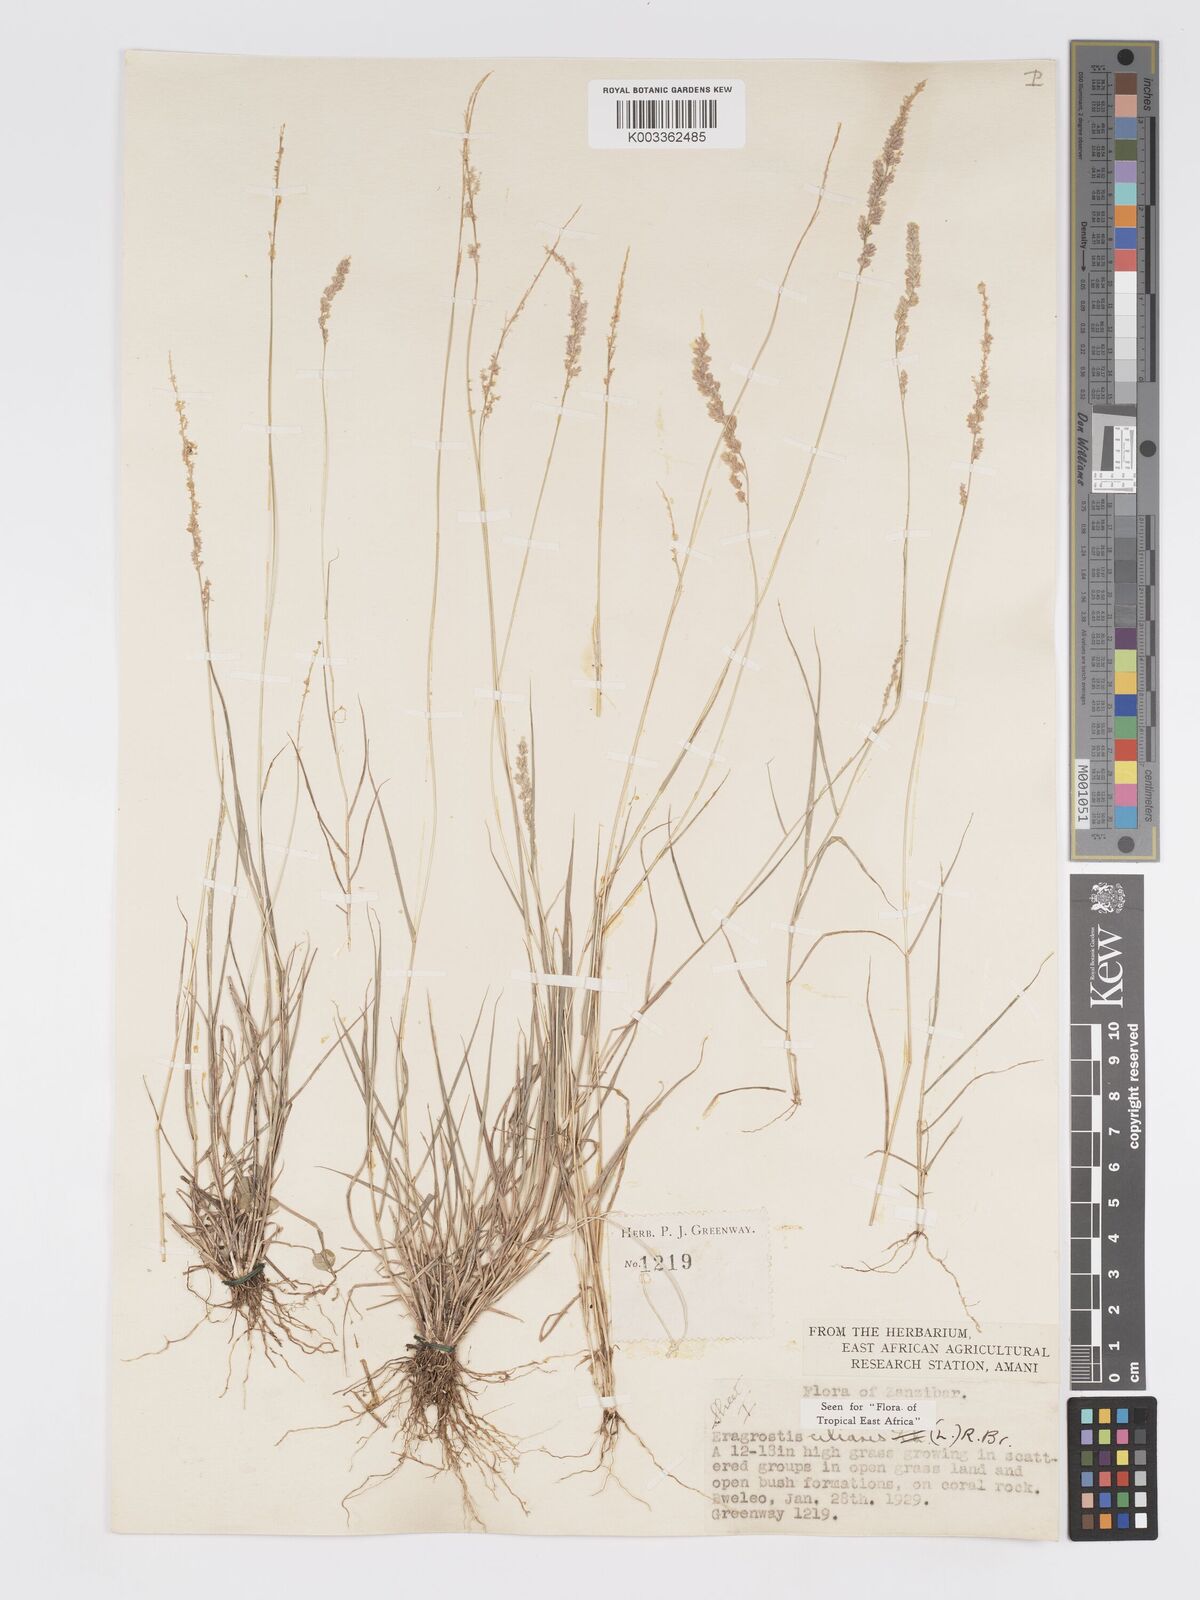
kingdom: Plantae
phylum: Tracheophyta
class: Liliopsida
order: Poales
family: Poaceae
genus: Eragrostis
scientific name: Eragrostis ciliaris
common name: Gophertail lovegrass
